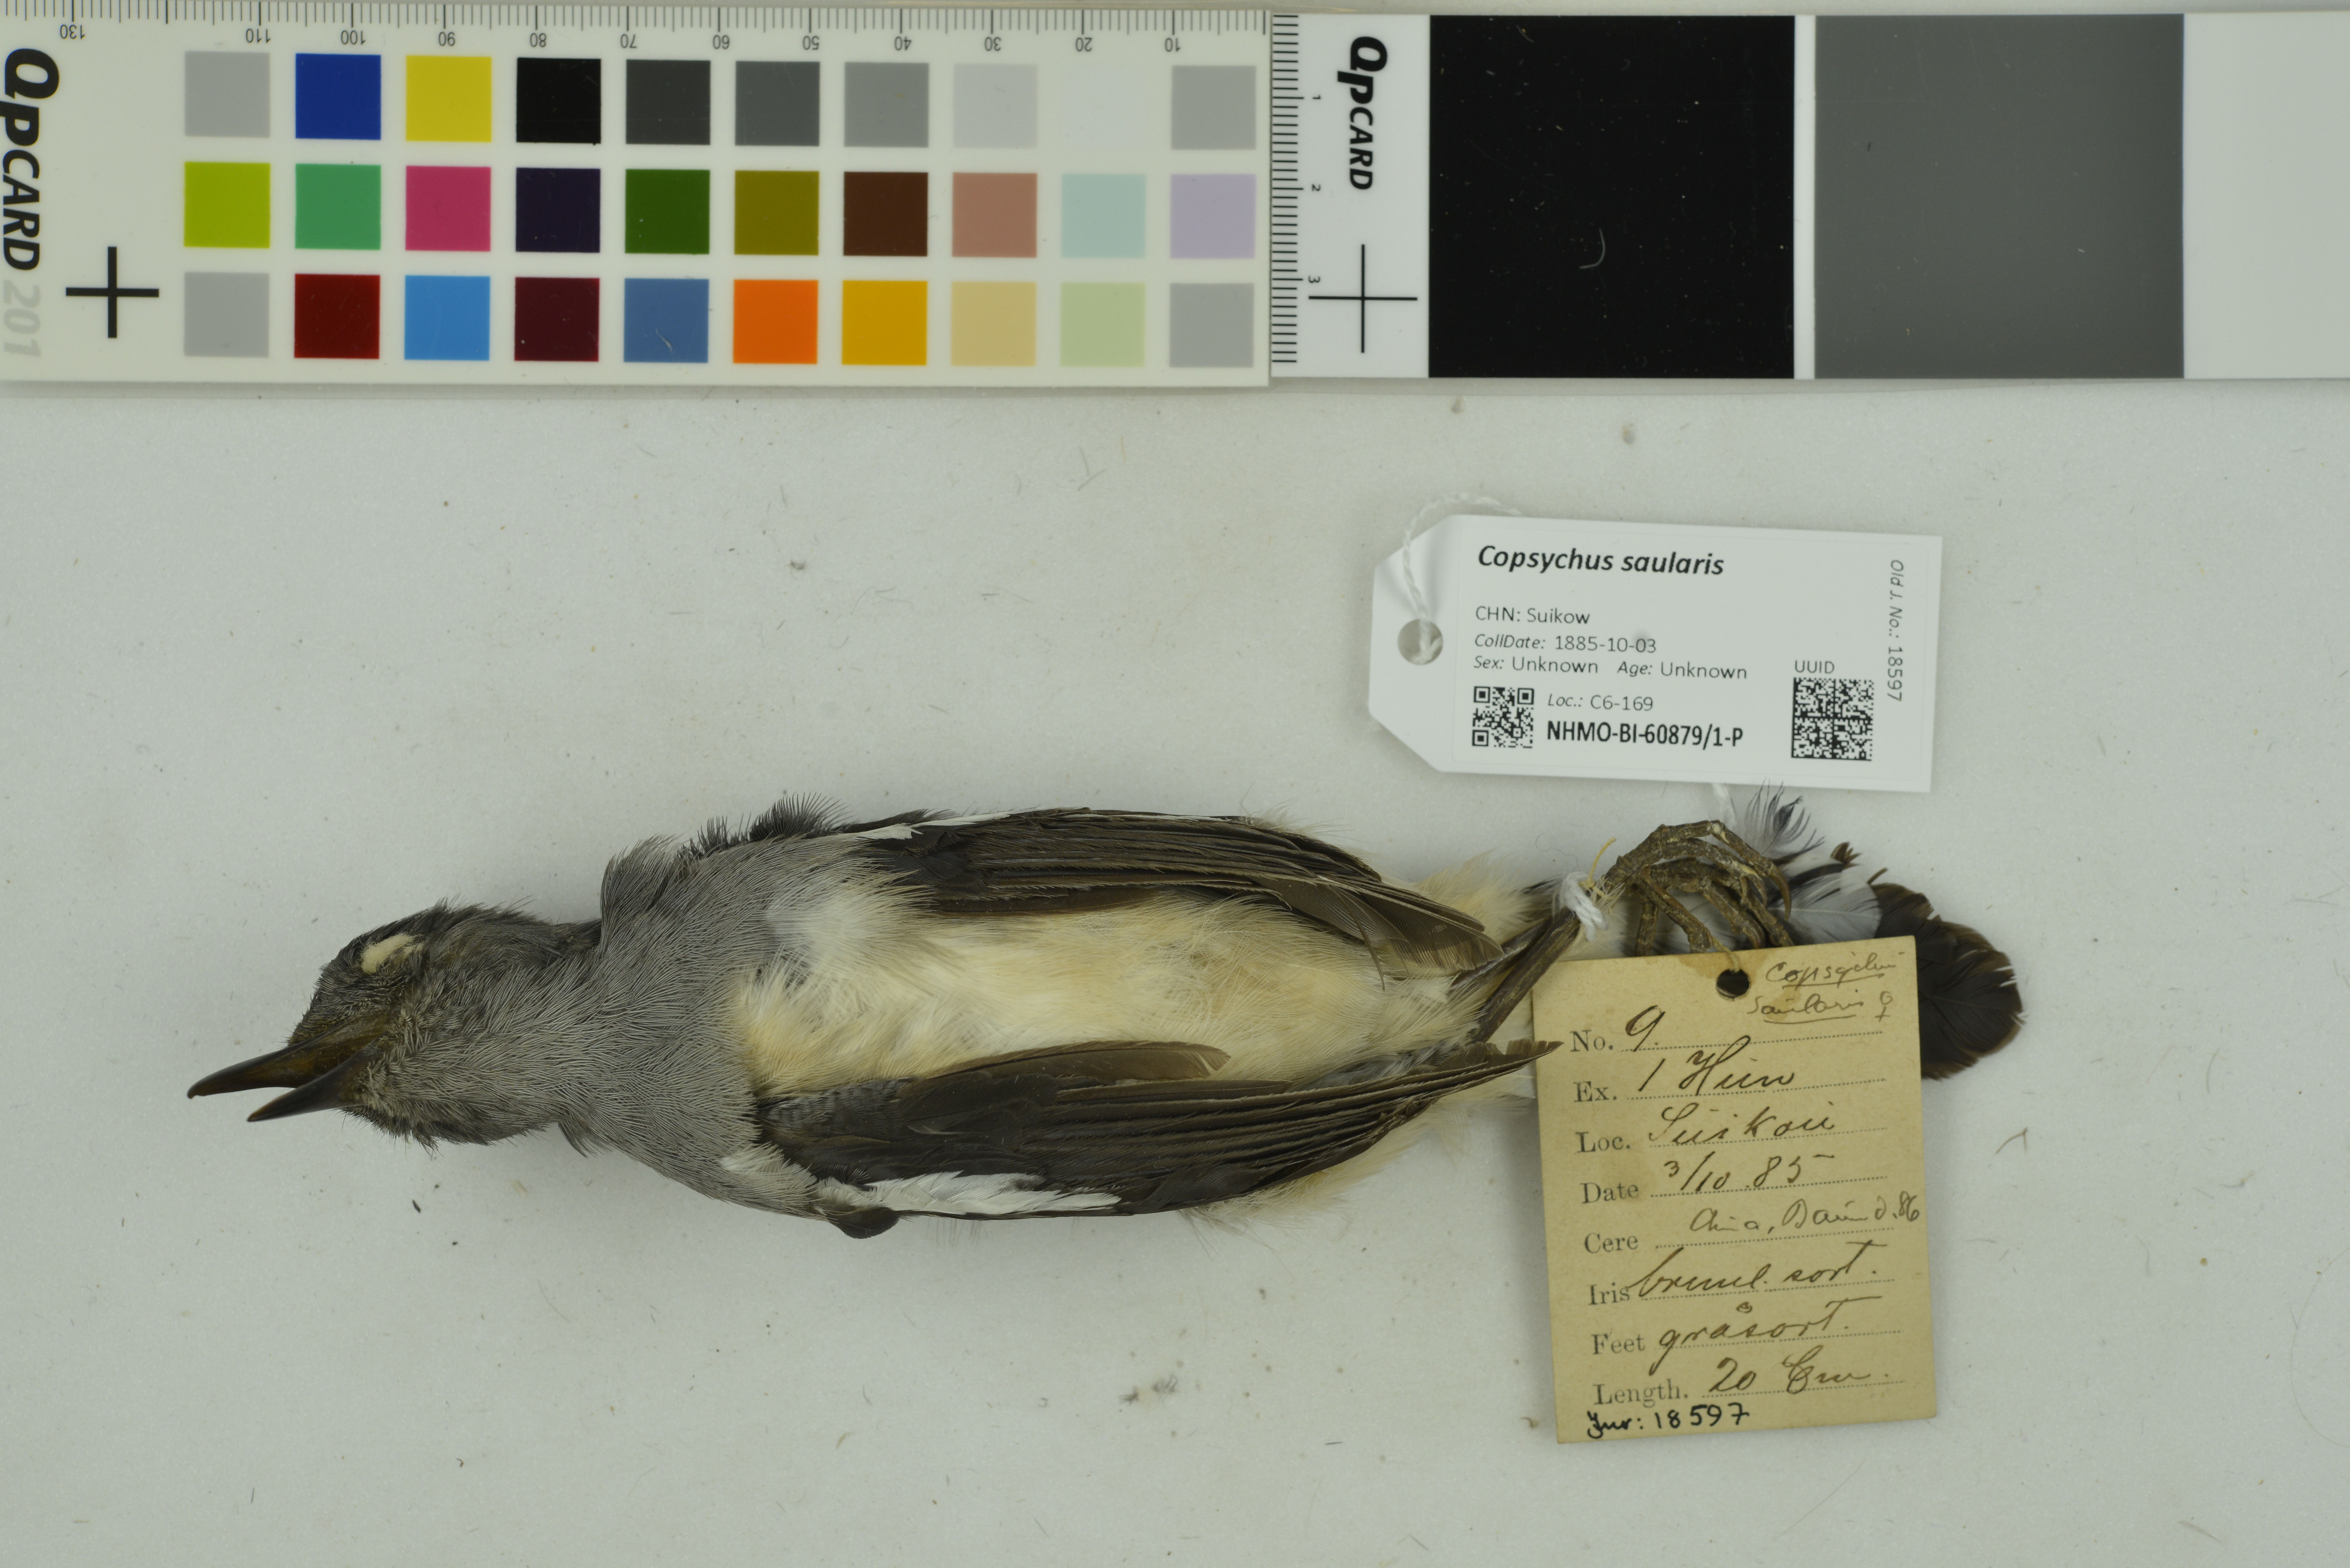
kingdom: Animalia
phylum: Chordata
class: Aves
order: Passeriformes
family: Muscicapidae
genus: Copsychus
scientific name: Copsychus saularis
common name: Oriental magpie-robin
